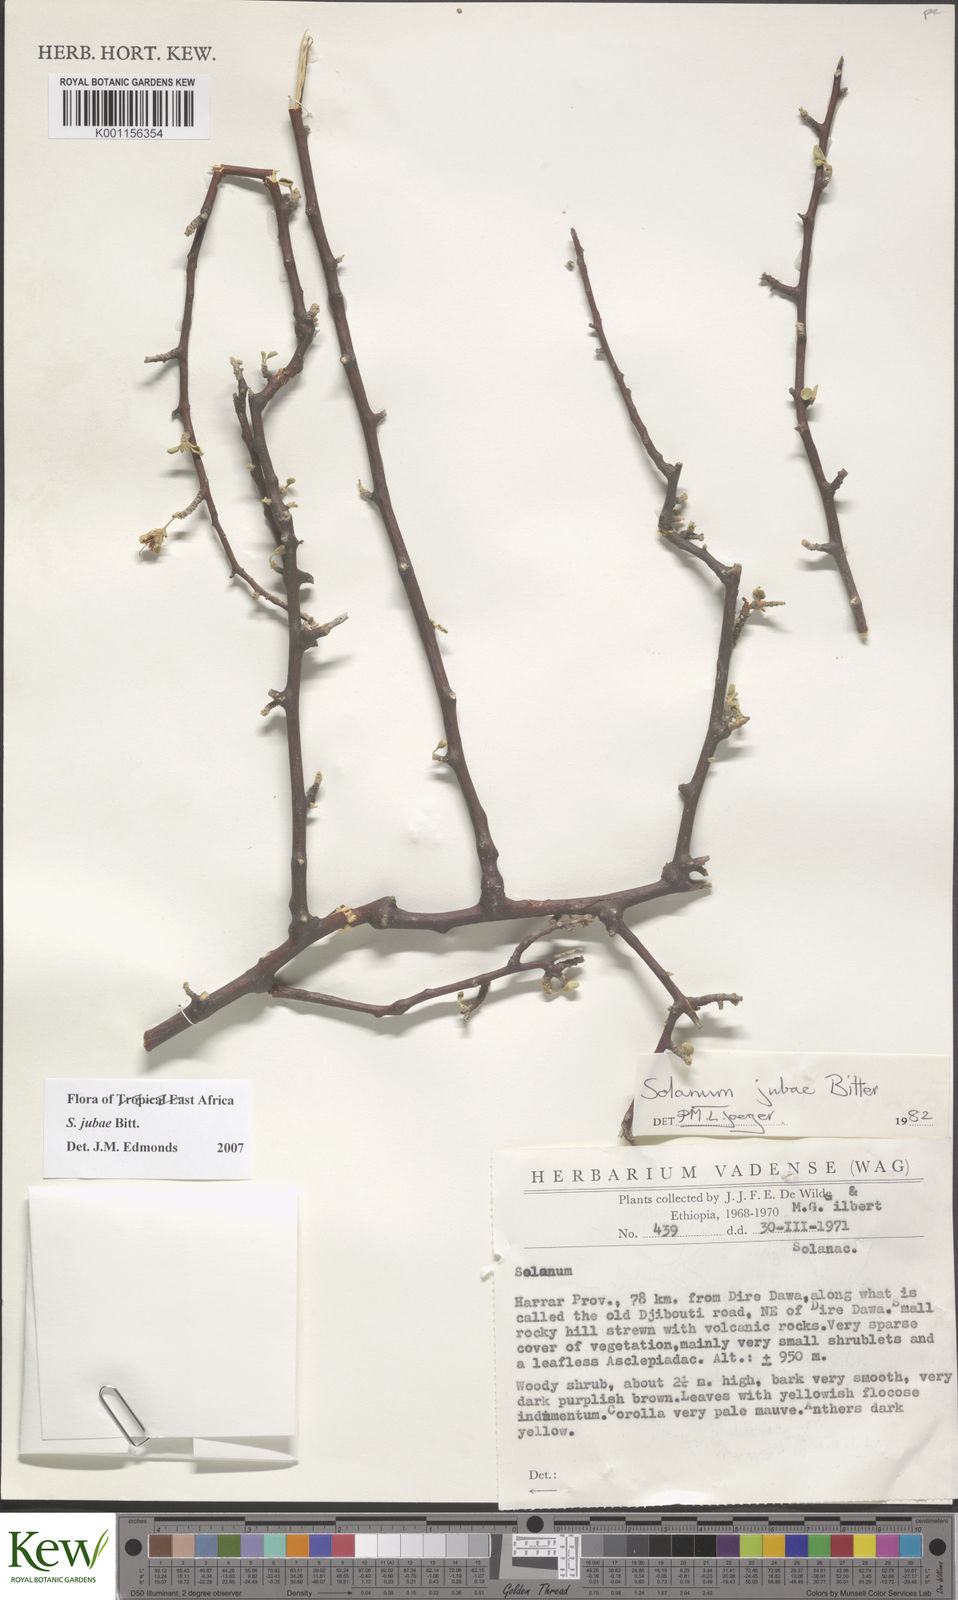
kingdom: Plantae
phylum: Tracheophyta
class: Magnoliopsida
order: Solanales
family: Solanaceae
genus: Solanum
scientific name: Solanum jubae
